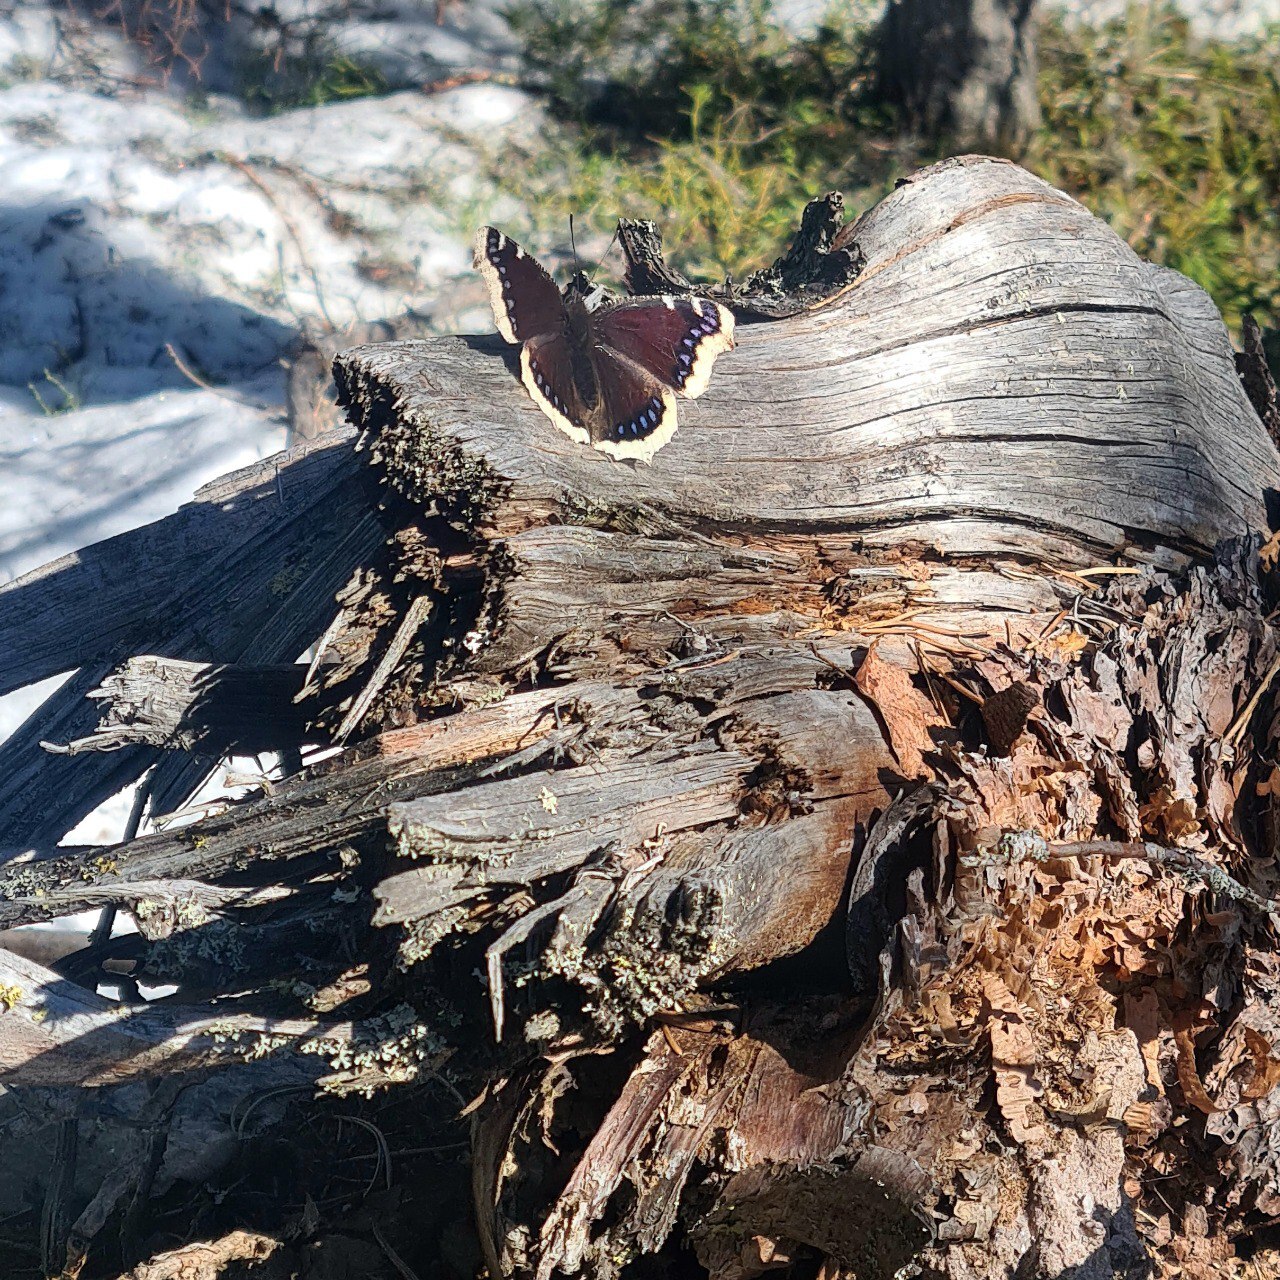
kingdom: Animalia
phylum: Arthropoda
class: Insecta
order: Lepidoptera
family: Nymphalidae
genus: Nymphalis
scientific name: Nymphalis antiopa
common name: Camberwell beauty
